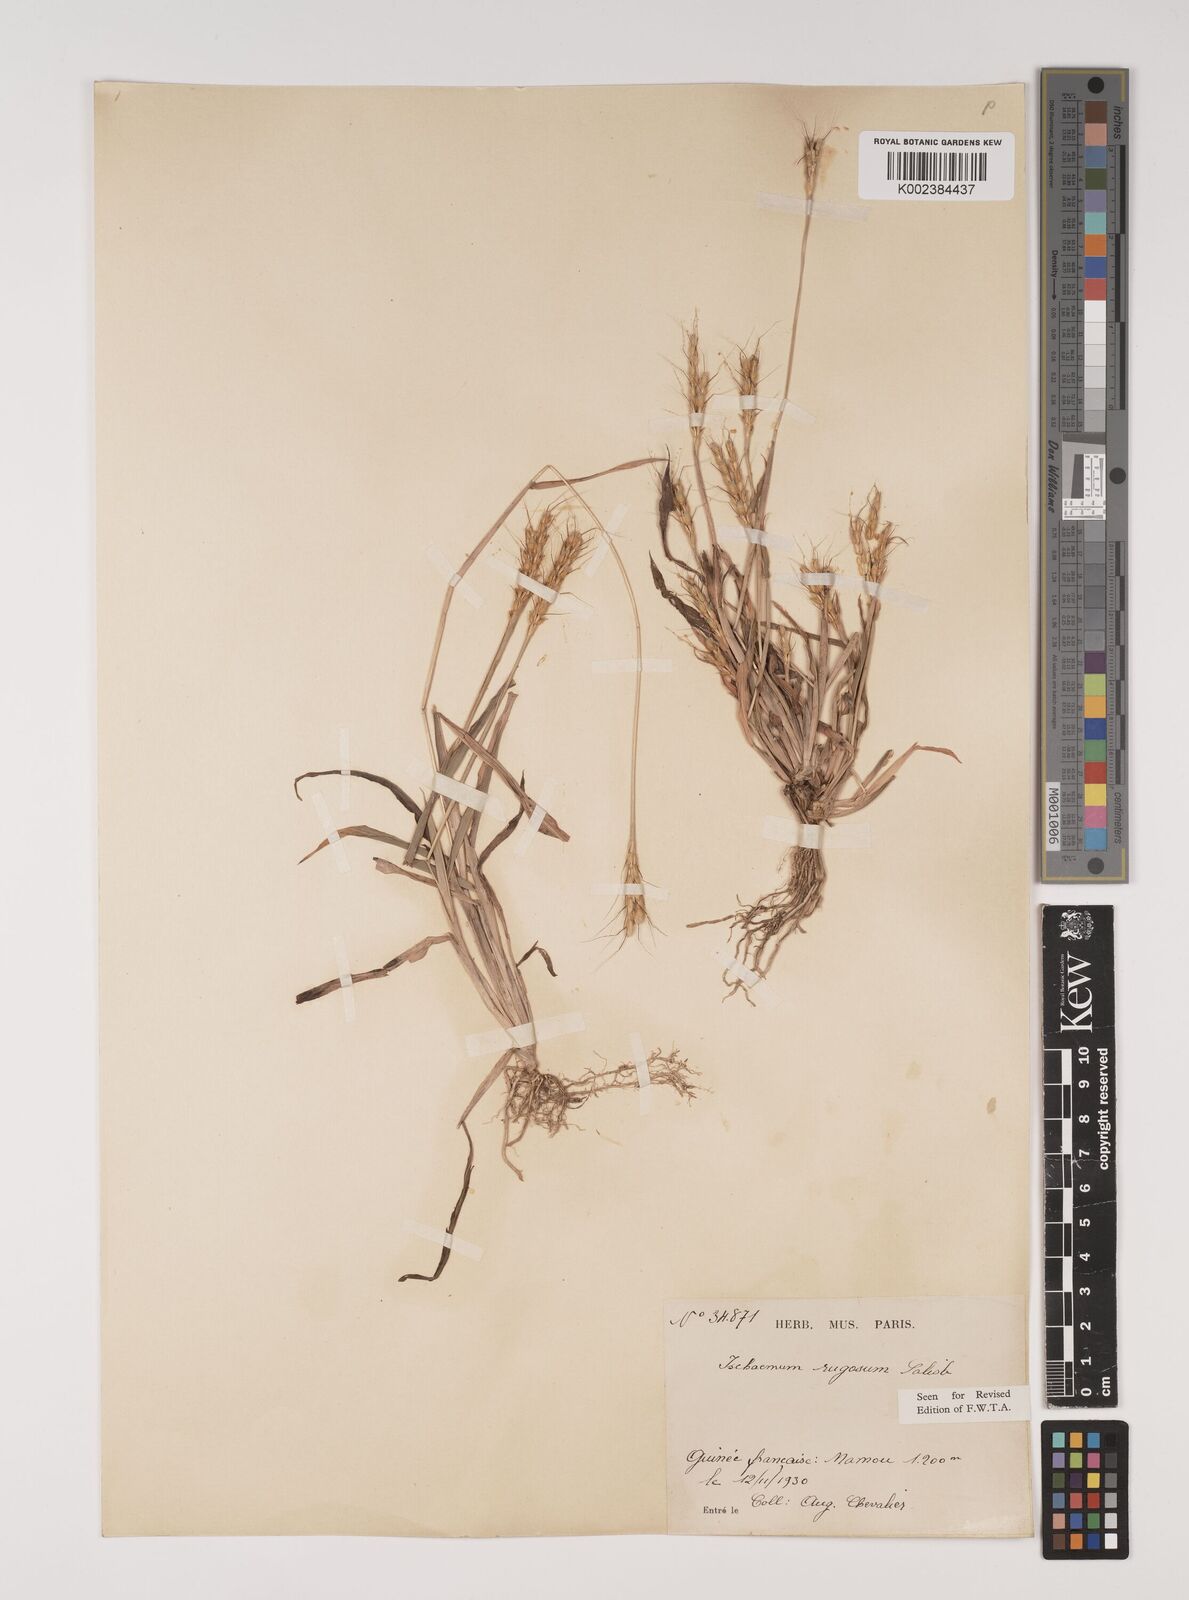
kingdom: Plantae
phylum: Tracheophyta
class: Liliopsida
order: Poales
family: Poaceae
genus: Ischaemum
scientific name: Ischaemum rugosum
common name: Saramatta grass
